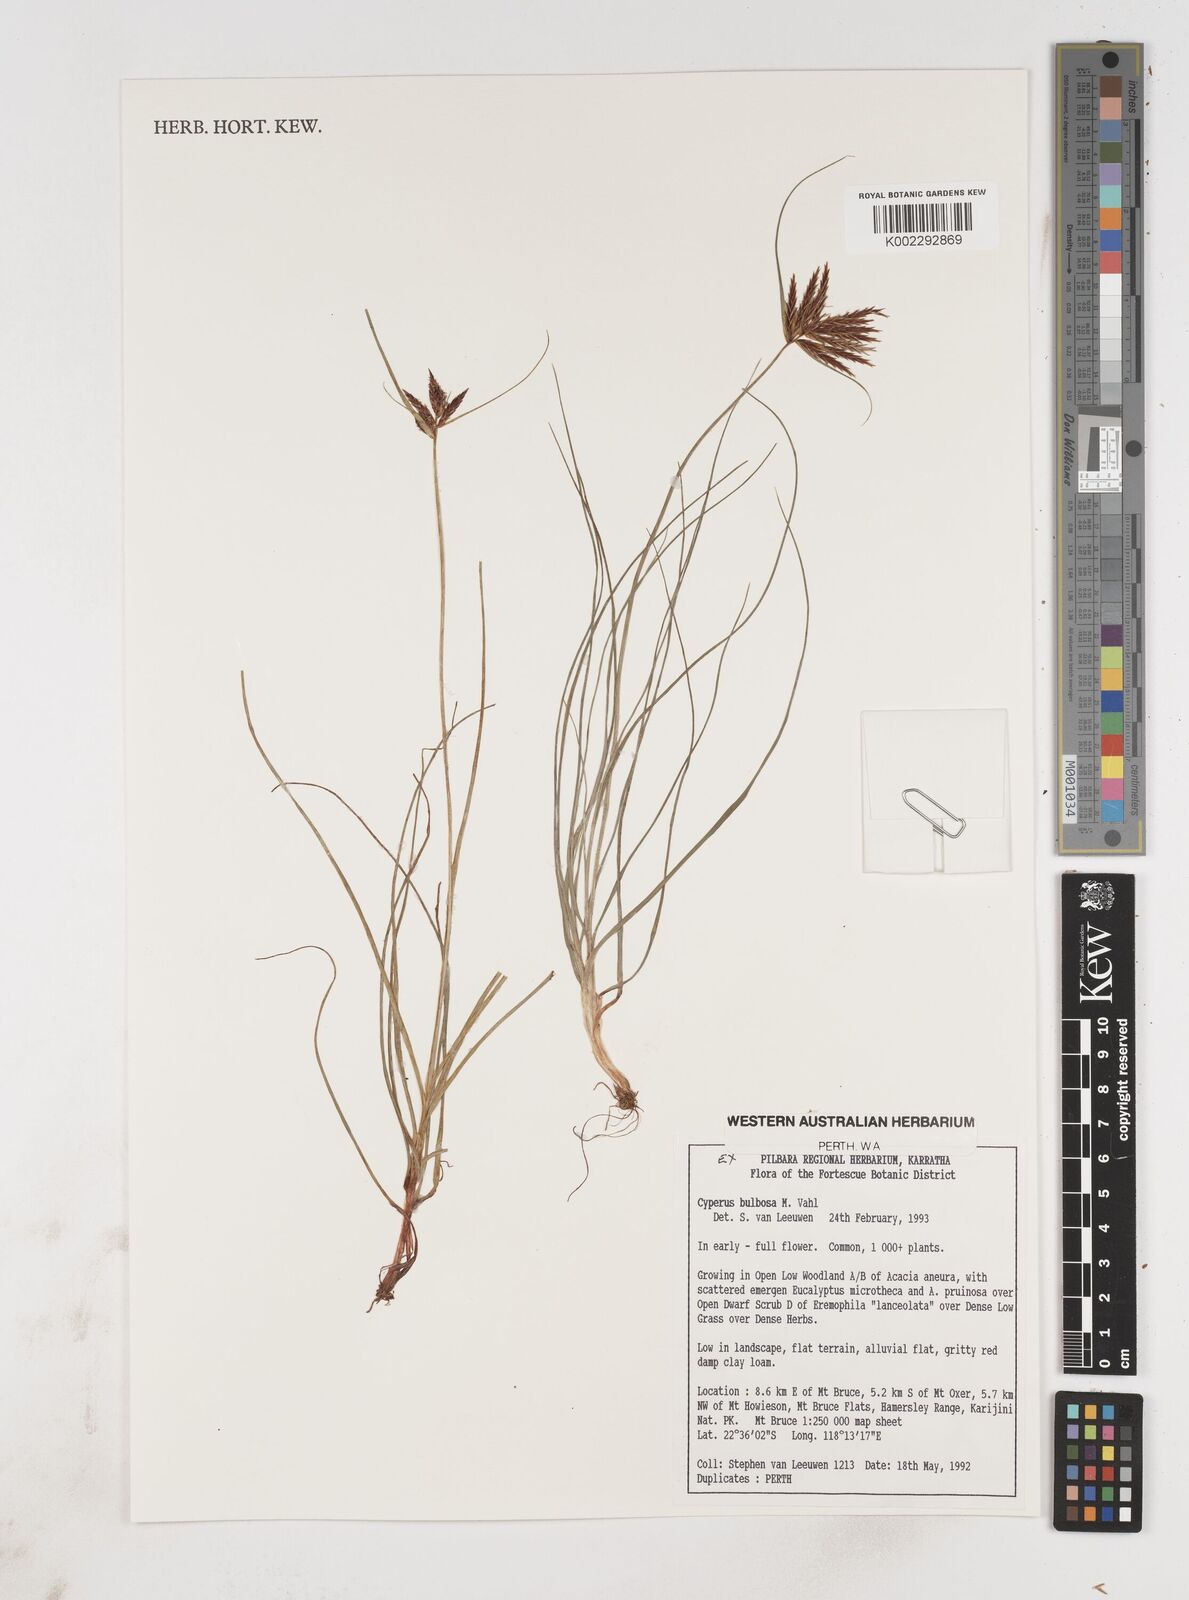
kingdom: Plantae
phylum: Tracheophyta
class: Liliopsida
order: Poales
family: Cyperaceae
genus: Cyperus
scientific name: Cyperus bulbosus
